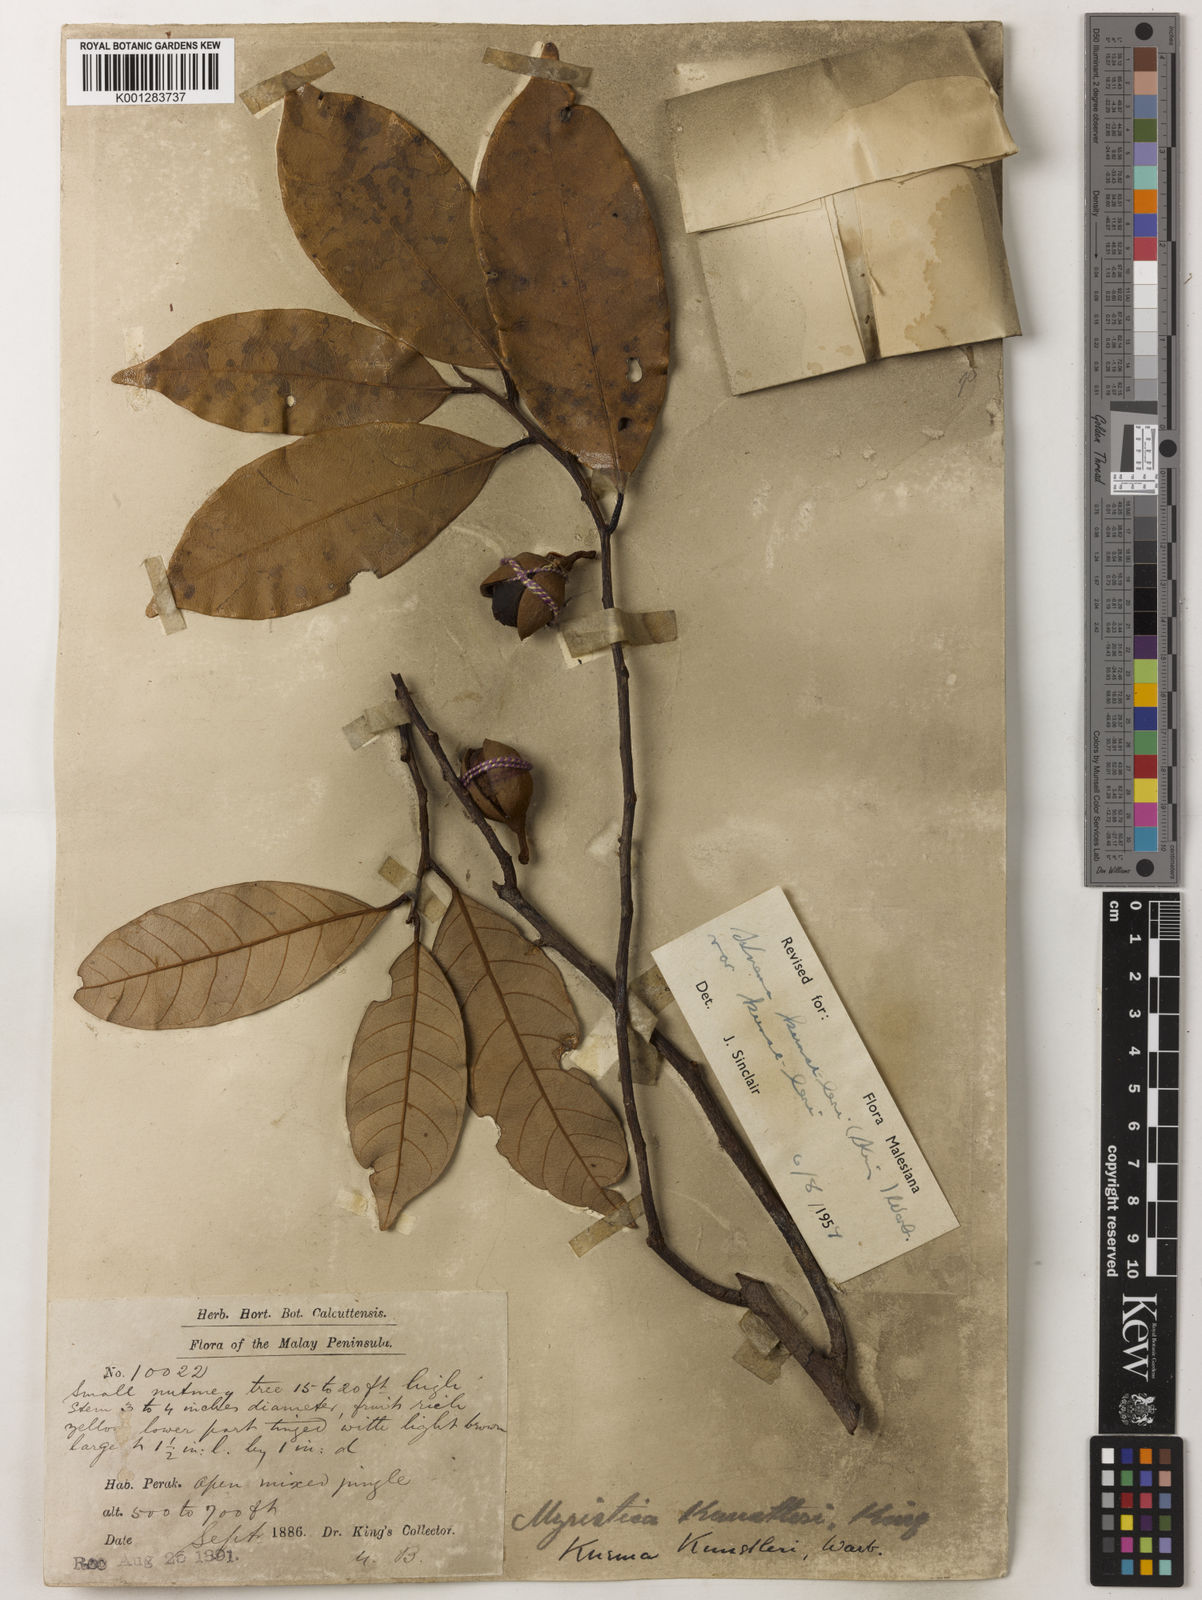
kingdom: Plantae
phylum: Tracheophyta
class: Magnoliopsida
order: Magnoliales
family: Myristicaceae
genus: Knema
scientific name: Knema kunstleri
